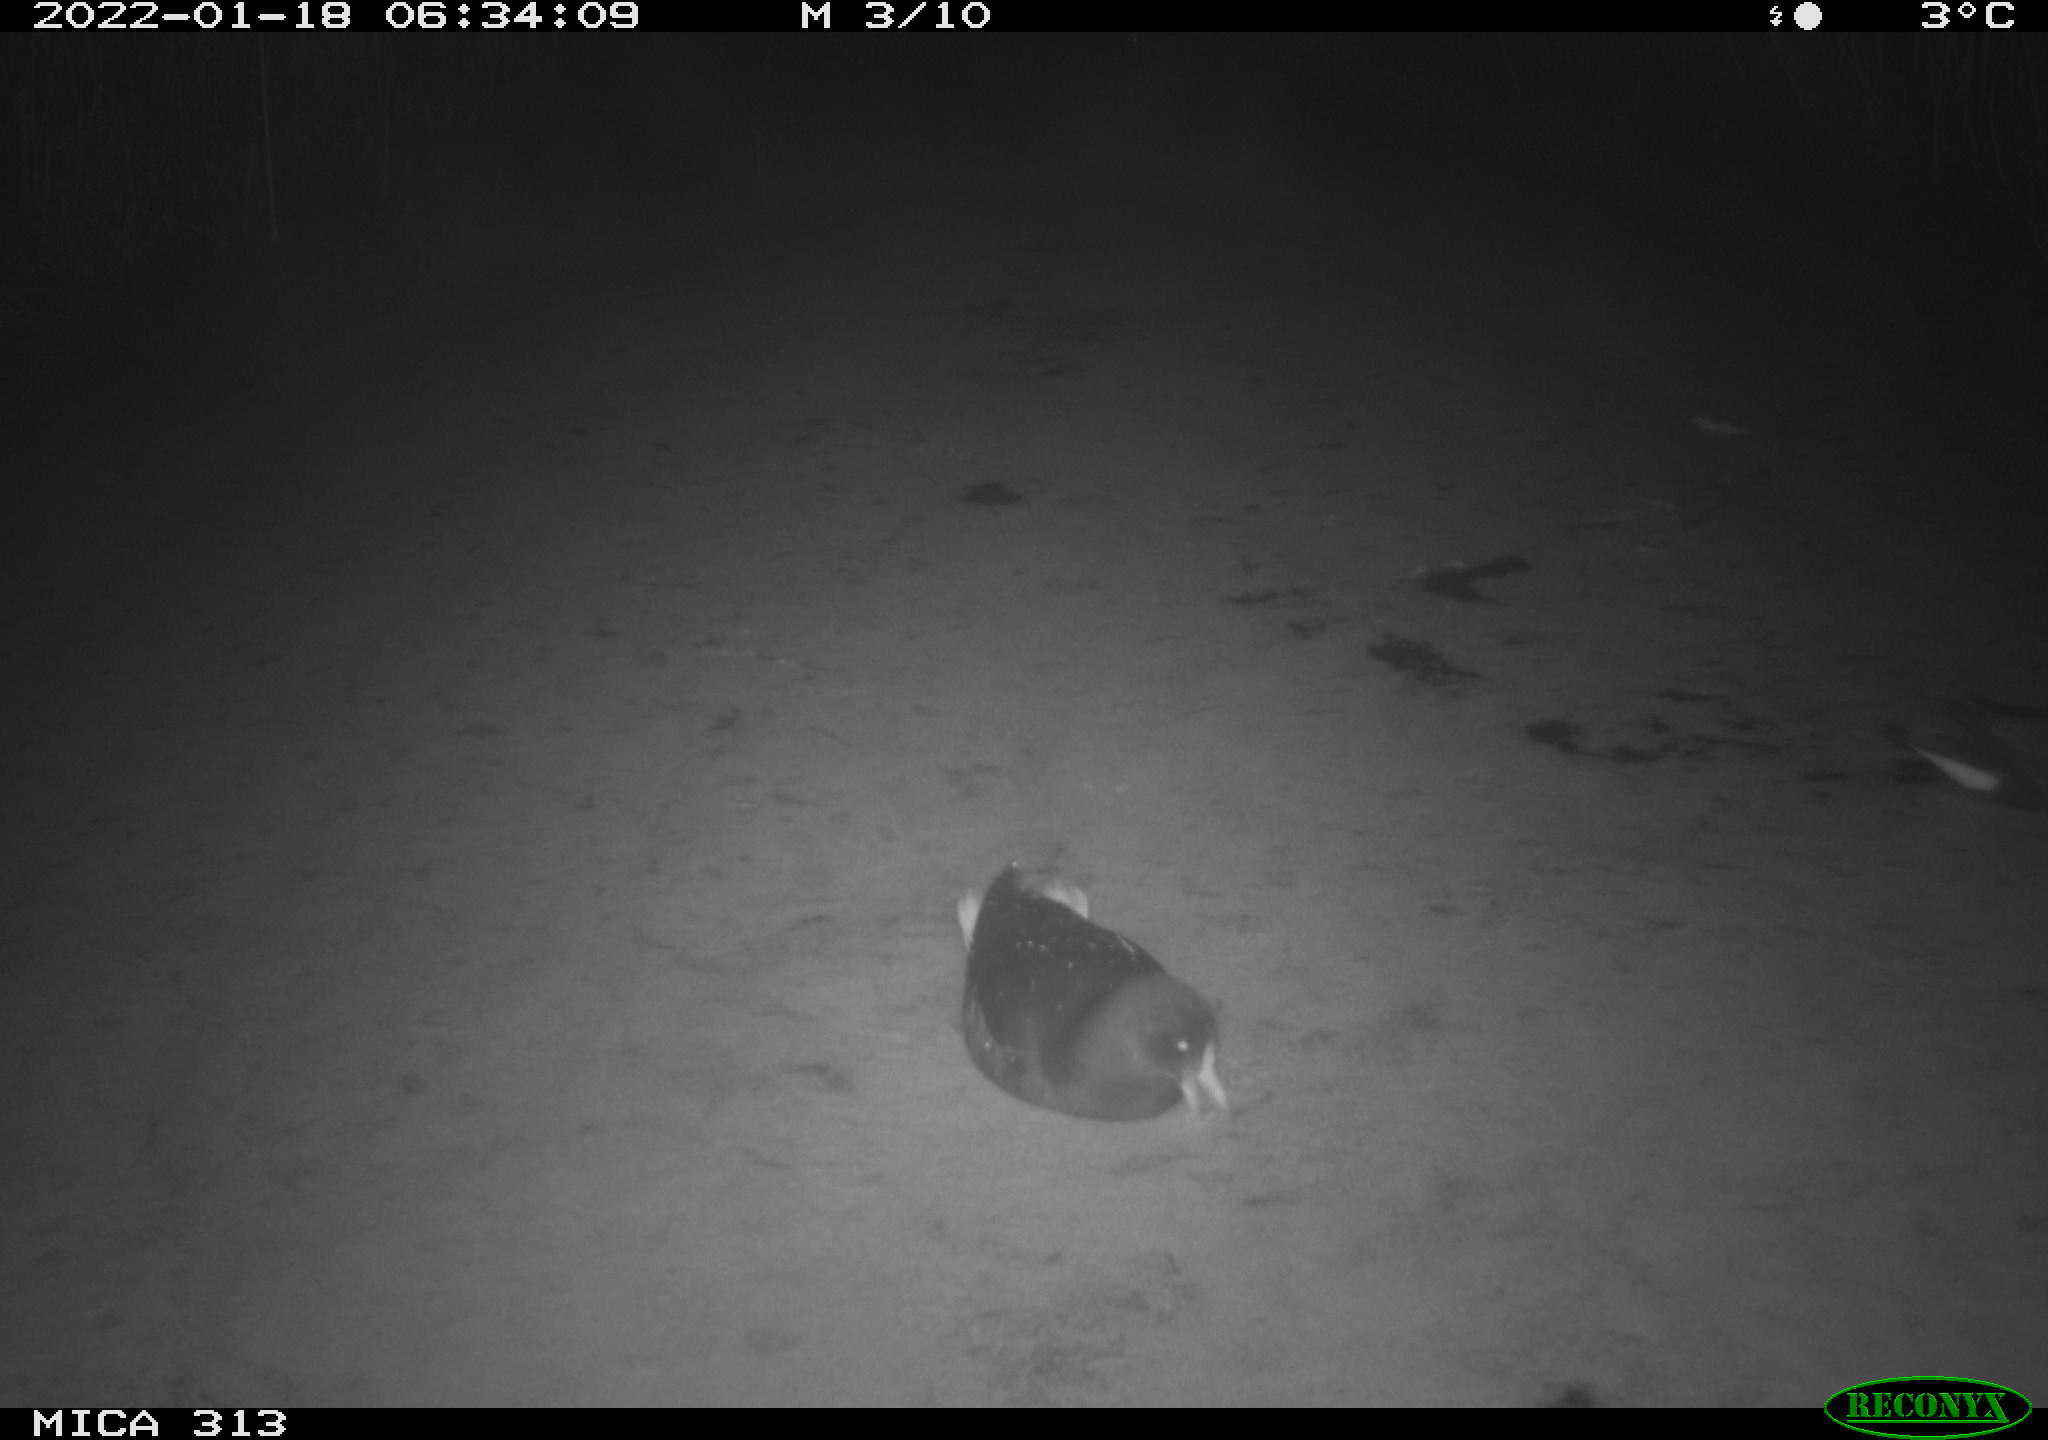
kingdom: Animalia
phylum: Chordata
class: Aves
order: Gruiformes
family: Rallidae
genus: Fulica
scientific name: Fulica atra
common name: Eurasian coot
